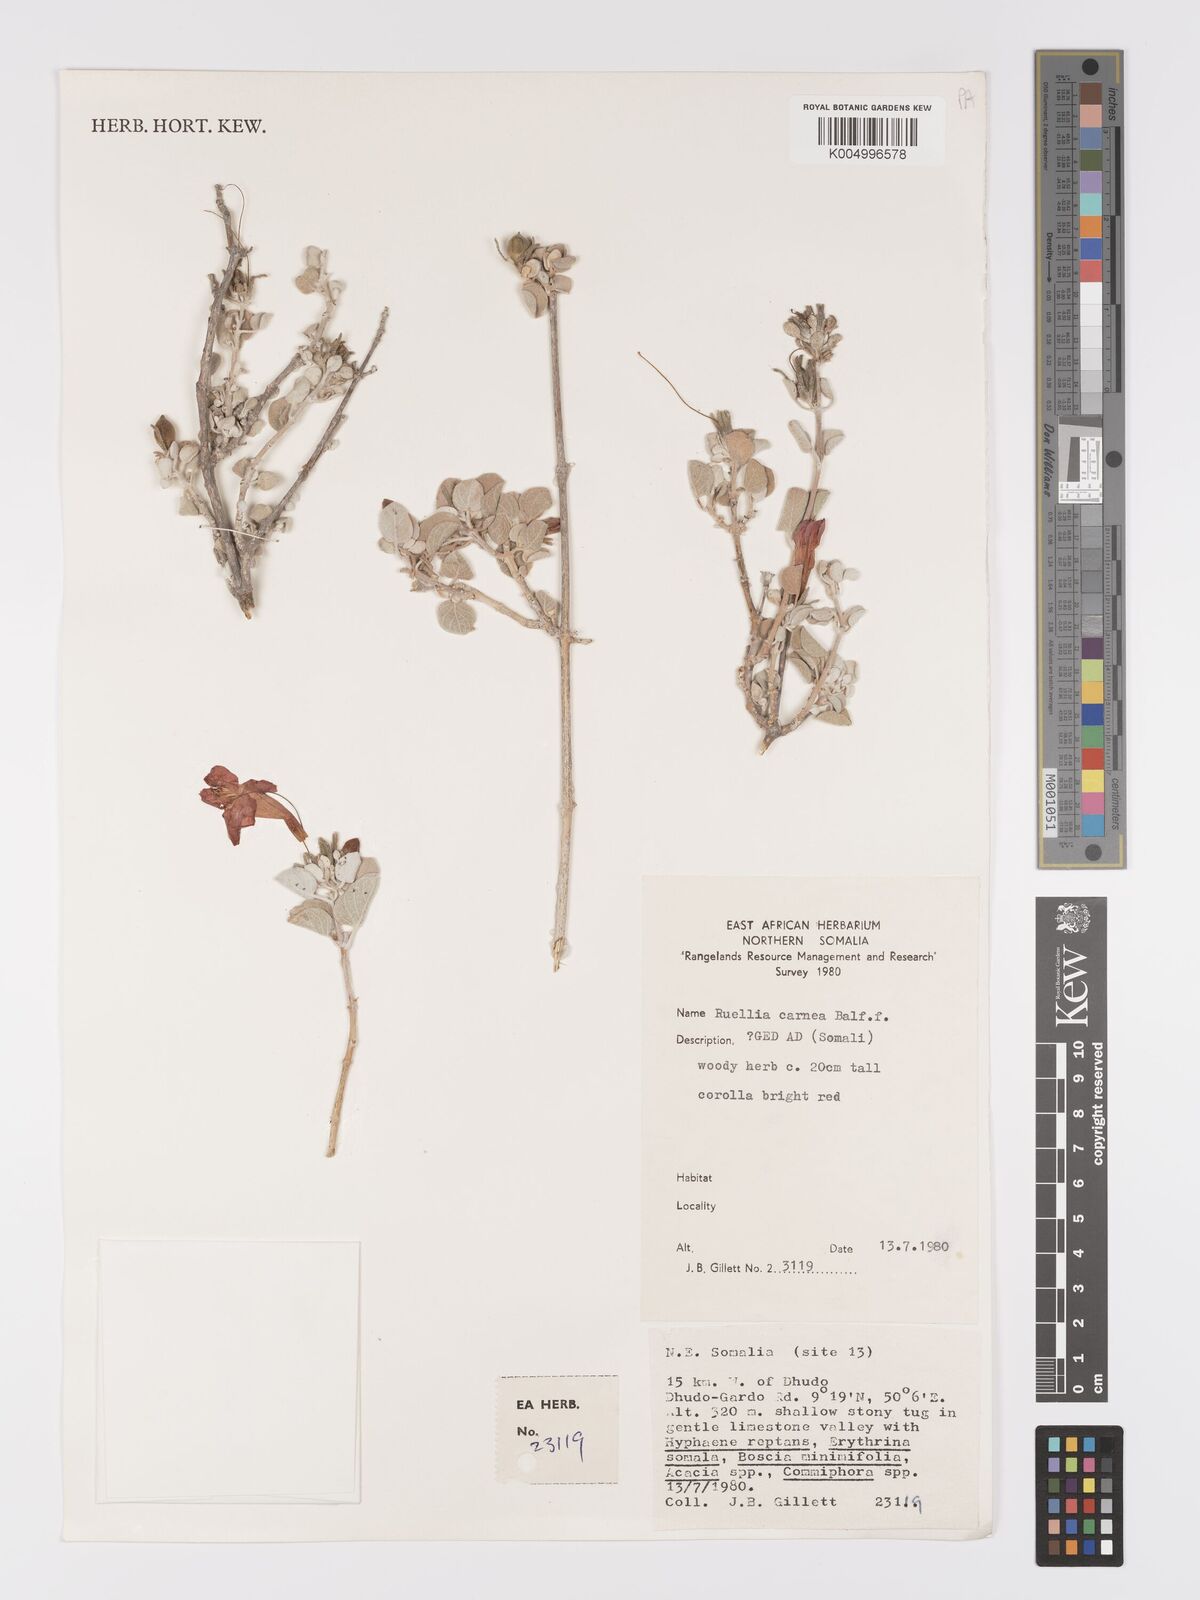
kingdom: Plantae
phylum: Tracheophyta
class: Magnoliopsida
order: Lamiales
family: Acanthaceae
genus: Ruellia
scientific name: Ruellia carnea
